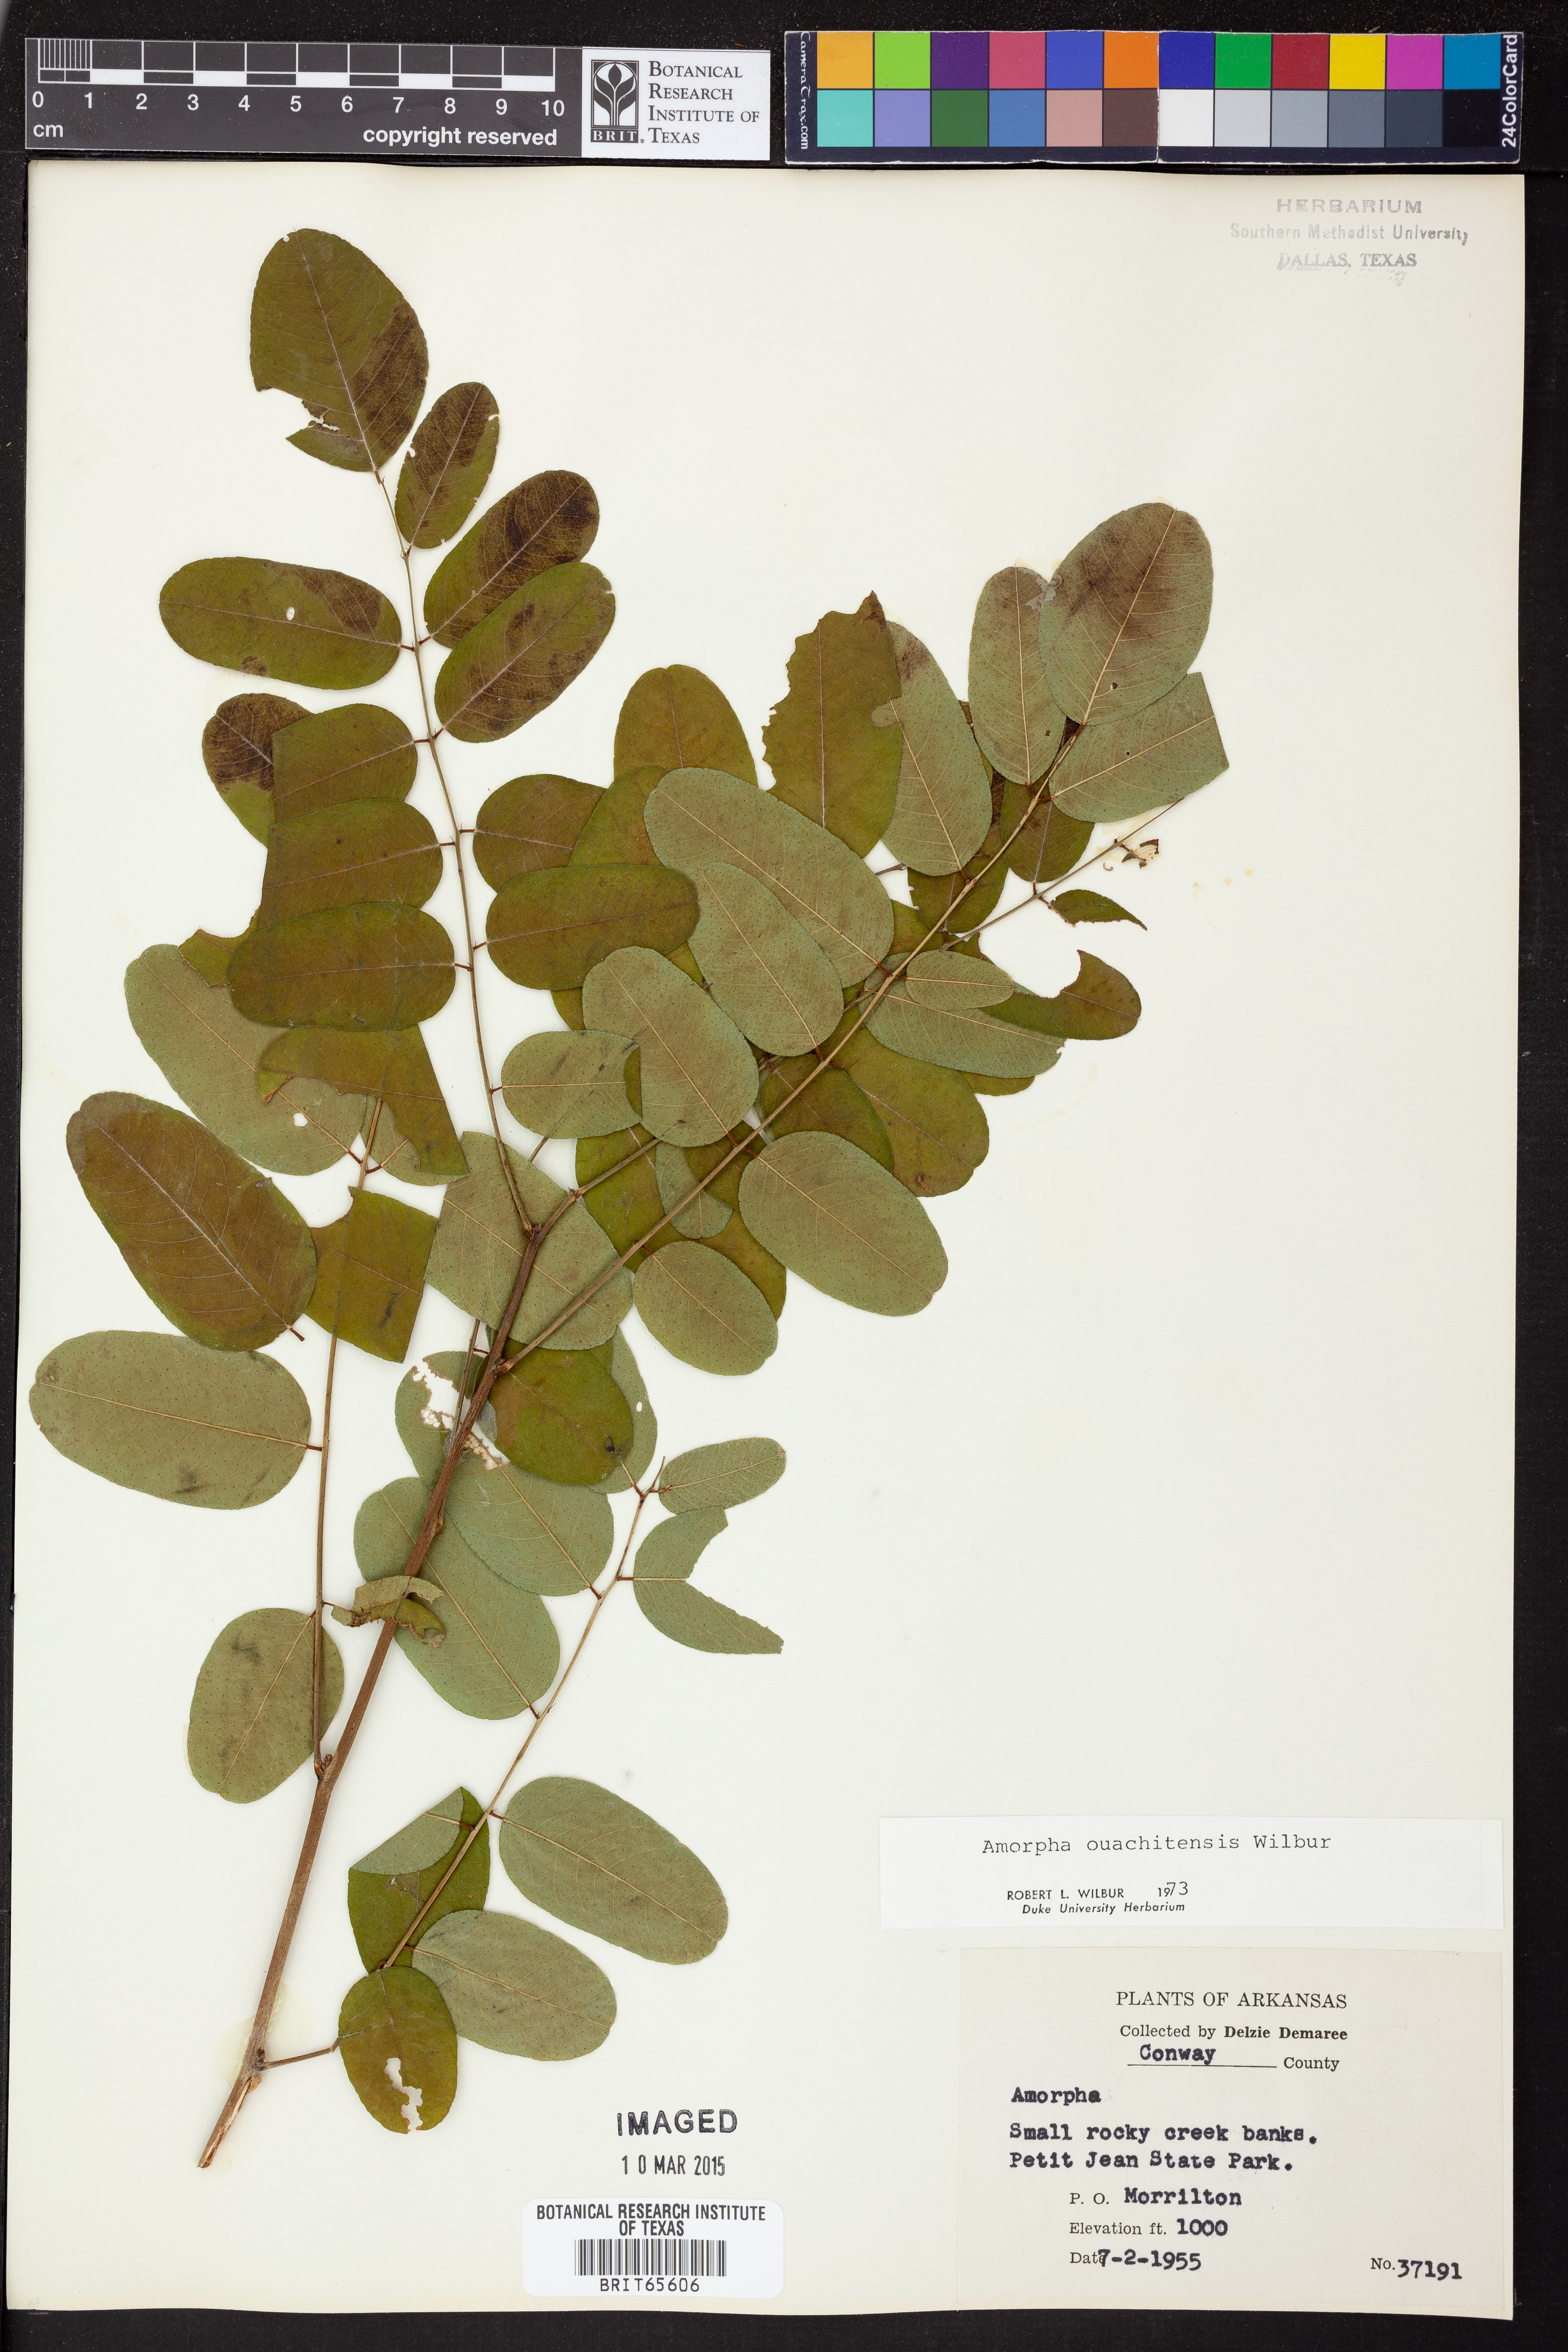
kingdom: Plantae
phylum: Tracheophyta
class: Magnoliopsida
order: Fabales
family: Fabaceae
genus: Amorpha
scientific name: Amorpha ouachitensis
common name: Ouachita false indigo
